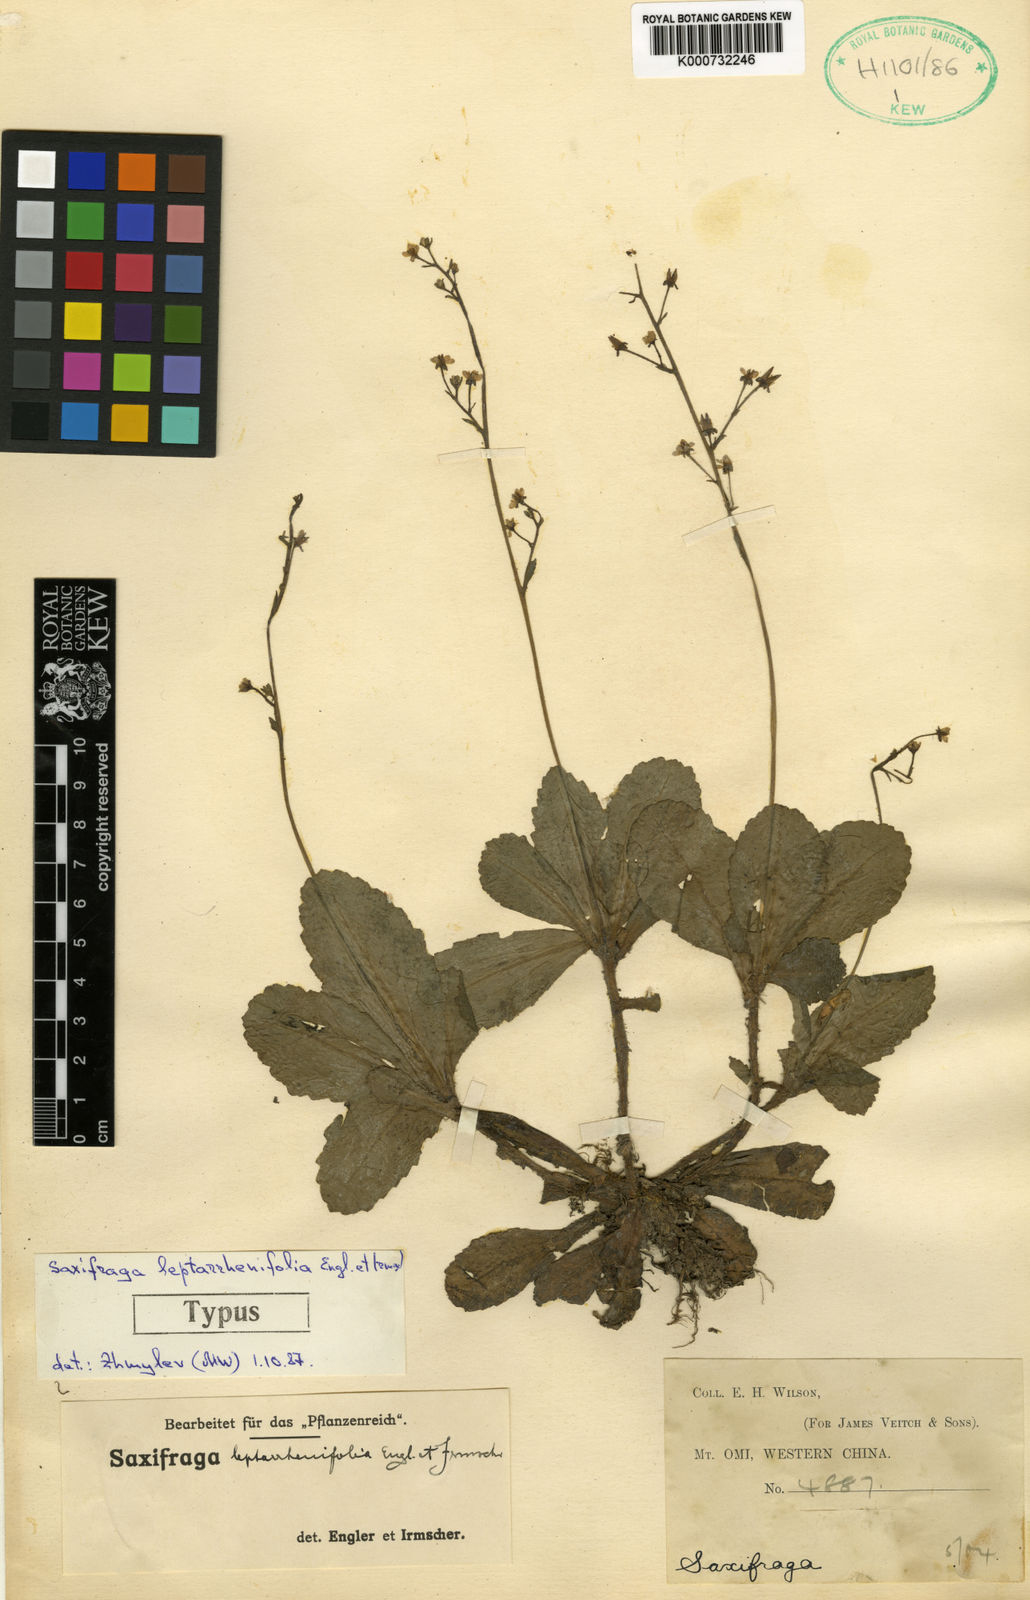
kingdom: Plantae
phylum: Tracheophyta
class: Magnoliopsida
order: Saxifragales
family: Saxifragaceae
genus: Micranthes
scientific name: Micranthes davidii
